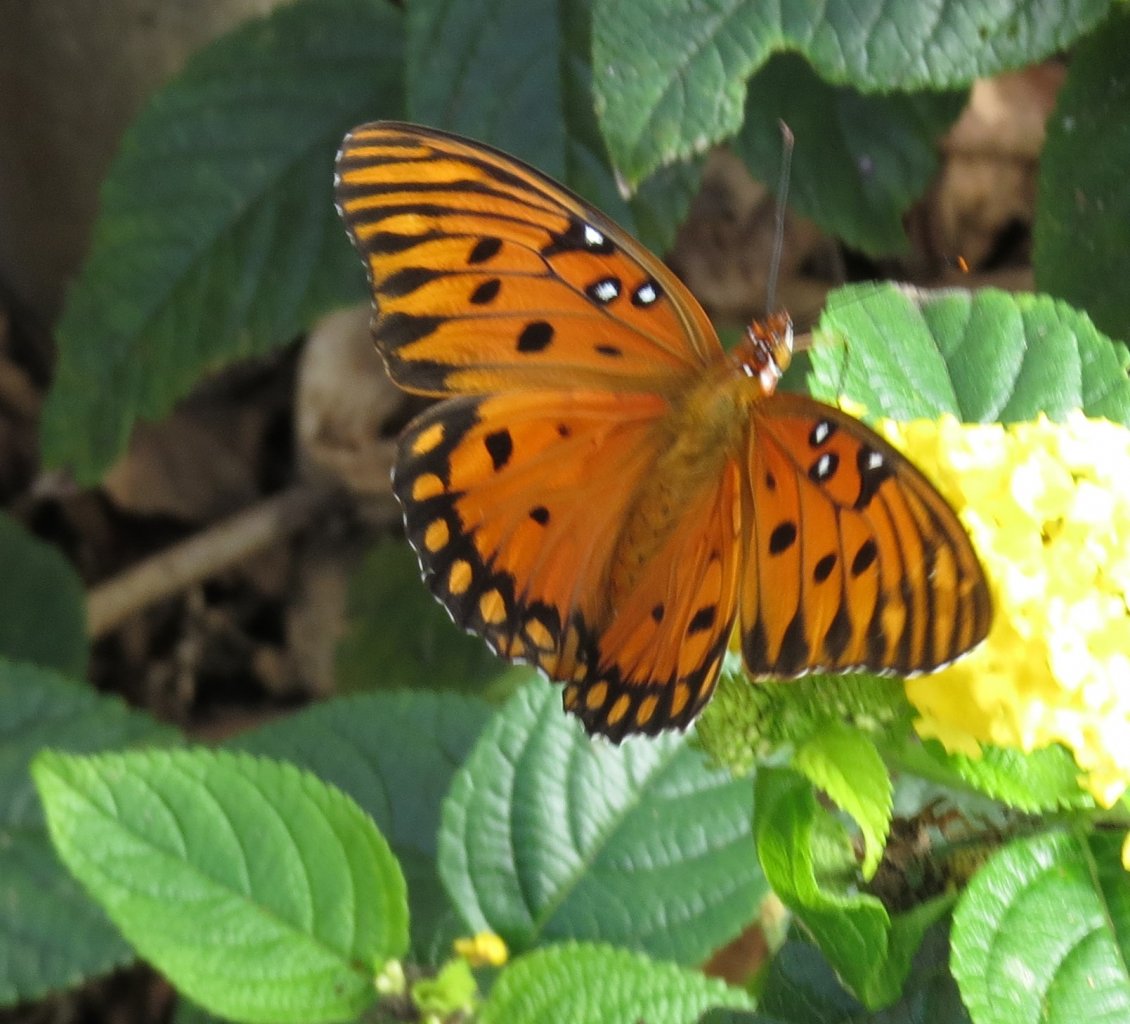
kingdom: Animalia
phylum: Arthropoda
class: Insecta
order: Lepidoptera
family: Nymphalidae
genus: Dione
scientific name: Dione vanillae
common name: Gulf Fritillary
